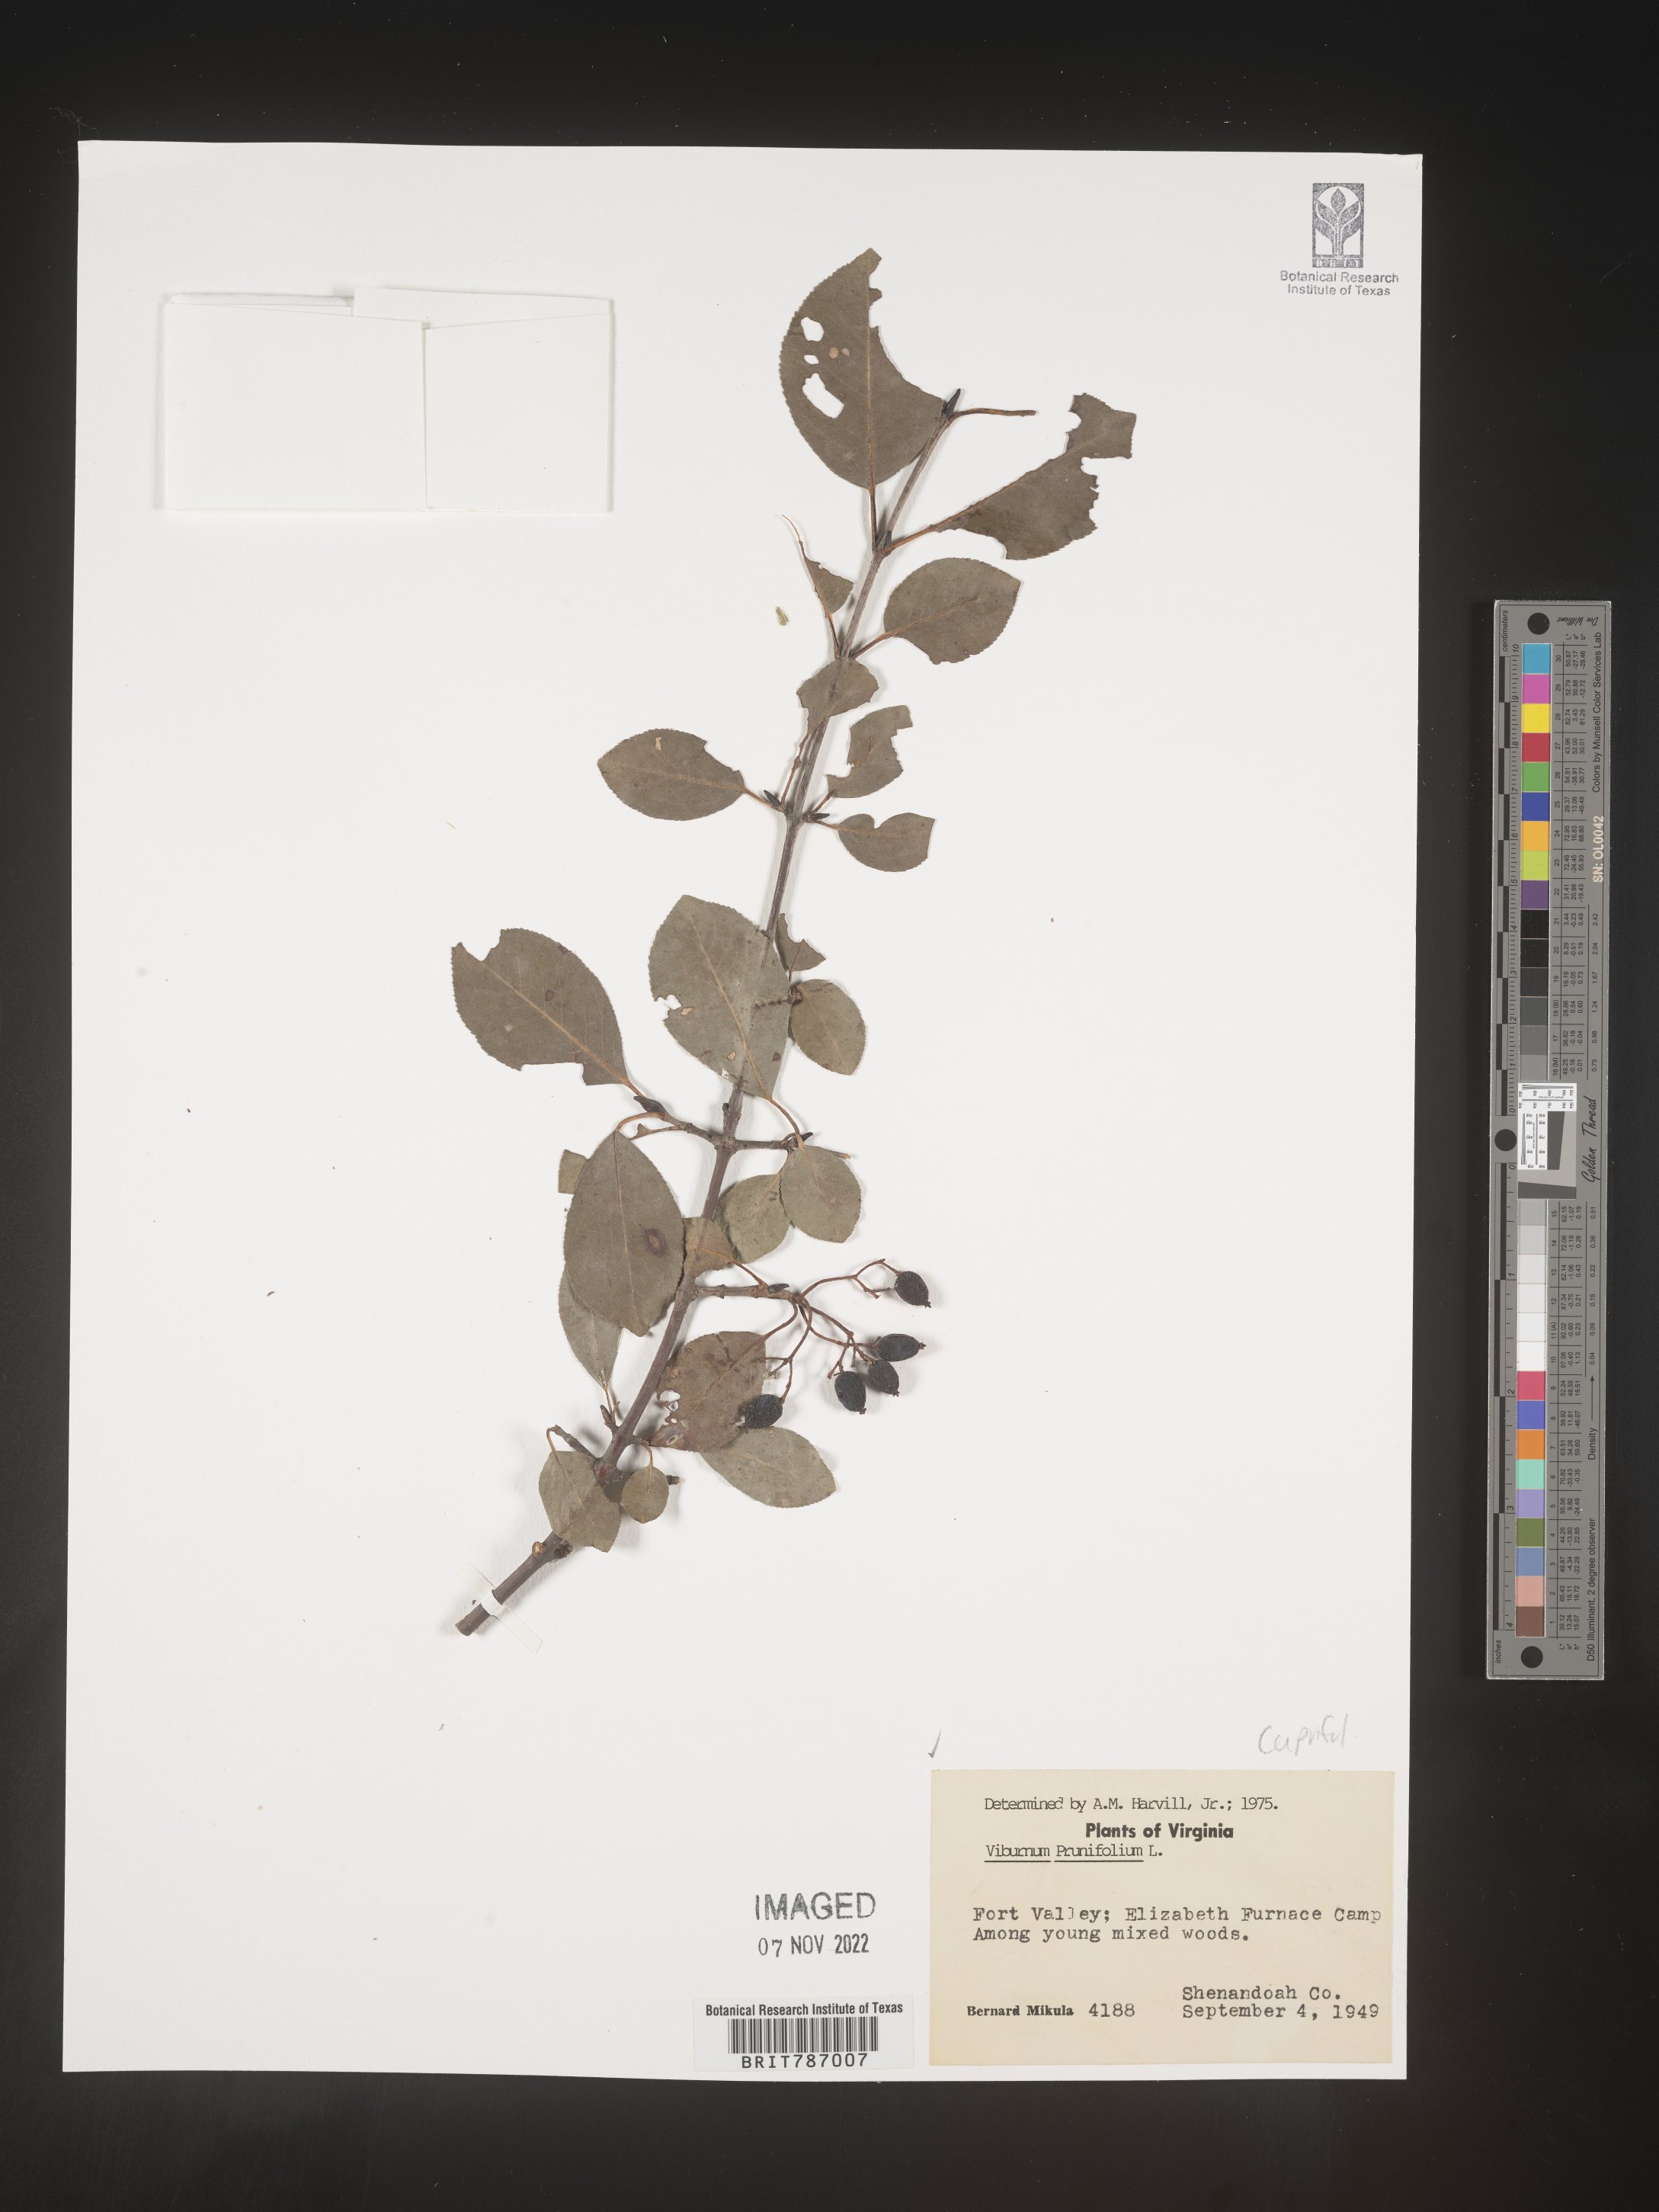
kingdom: Plantae
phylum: Tracheophyta
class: Magnoliopsida
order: Dipsacales
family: Viburnaceae
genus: Viburnum
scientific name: Viburnum prunifolium
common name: Black haw
